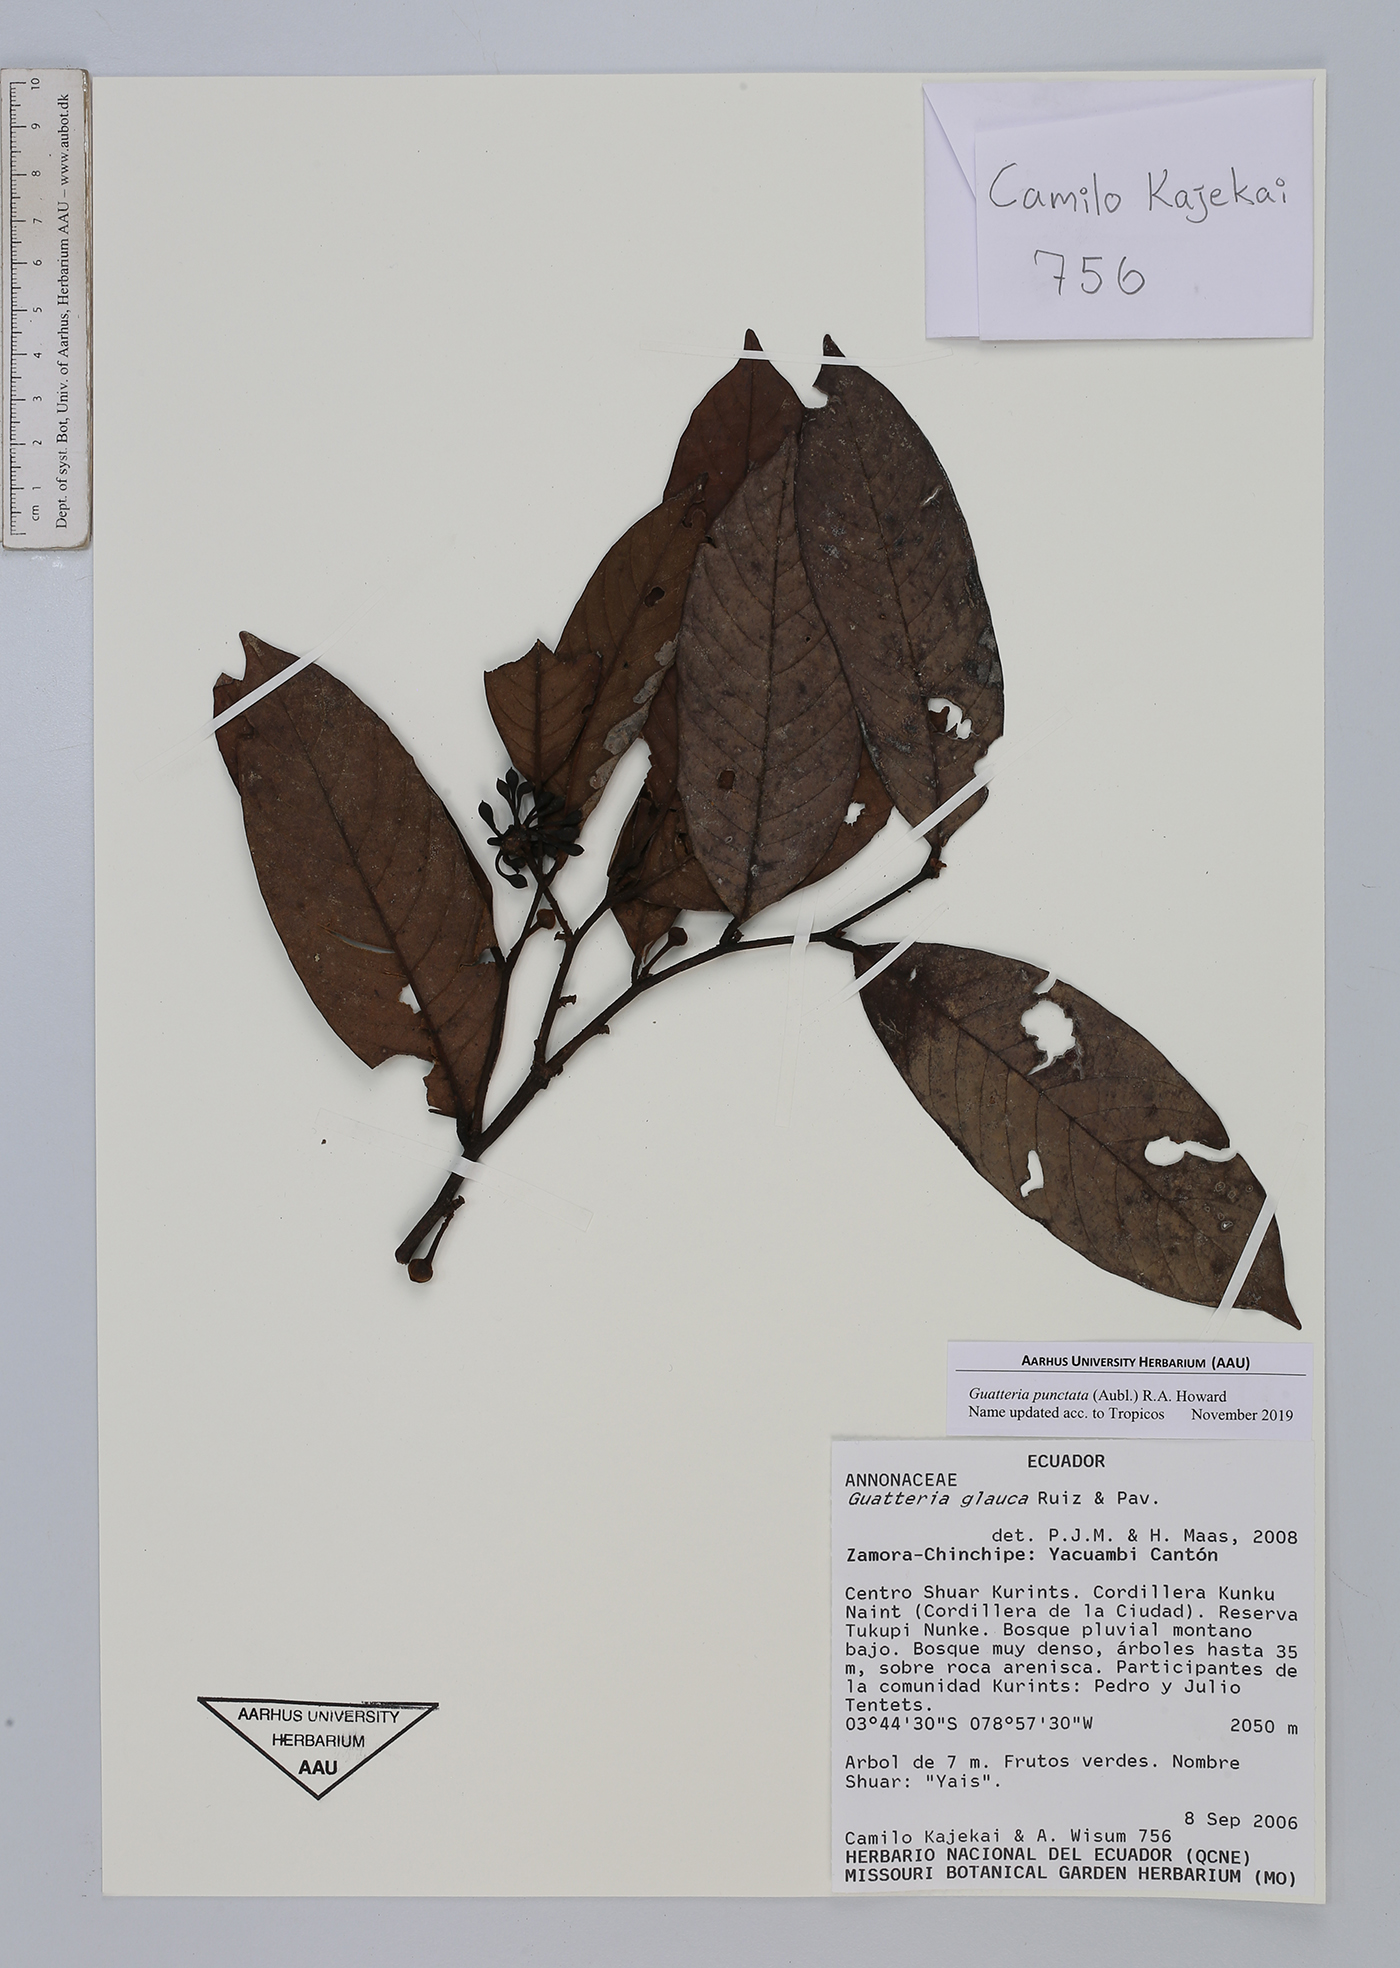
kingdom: Plantae
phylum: Tracheophyta
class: Magnoliopsida
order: Magnoliales
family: Annonaceae
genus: Guatteria
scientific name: Guatteria punctata
